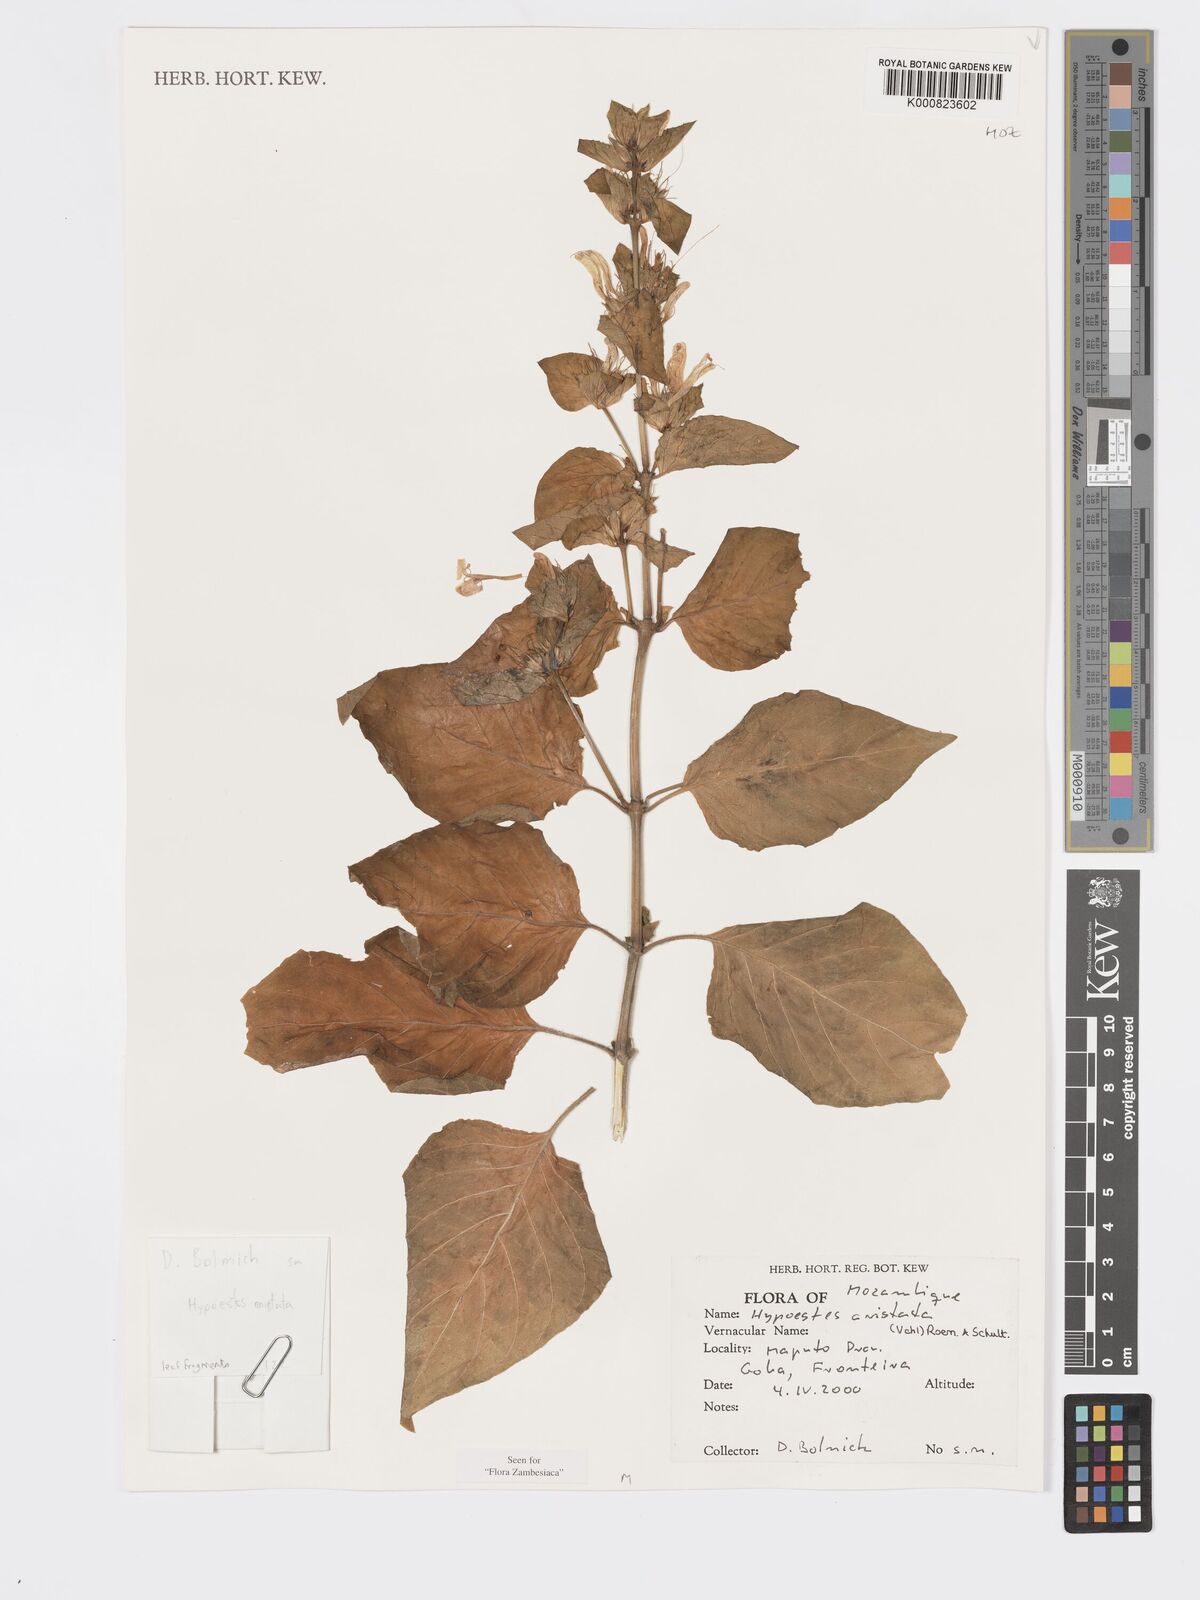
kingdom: Plantae
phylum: Tracheophyta
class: Magnoliopsida
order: Lamiales
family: Acanthaceae
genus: Hypoestes
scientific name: Hypoestes aristata
